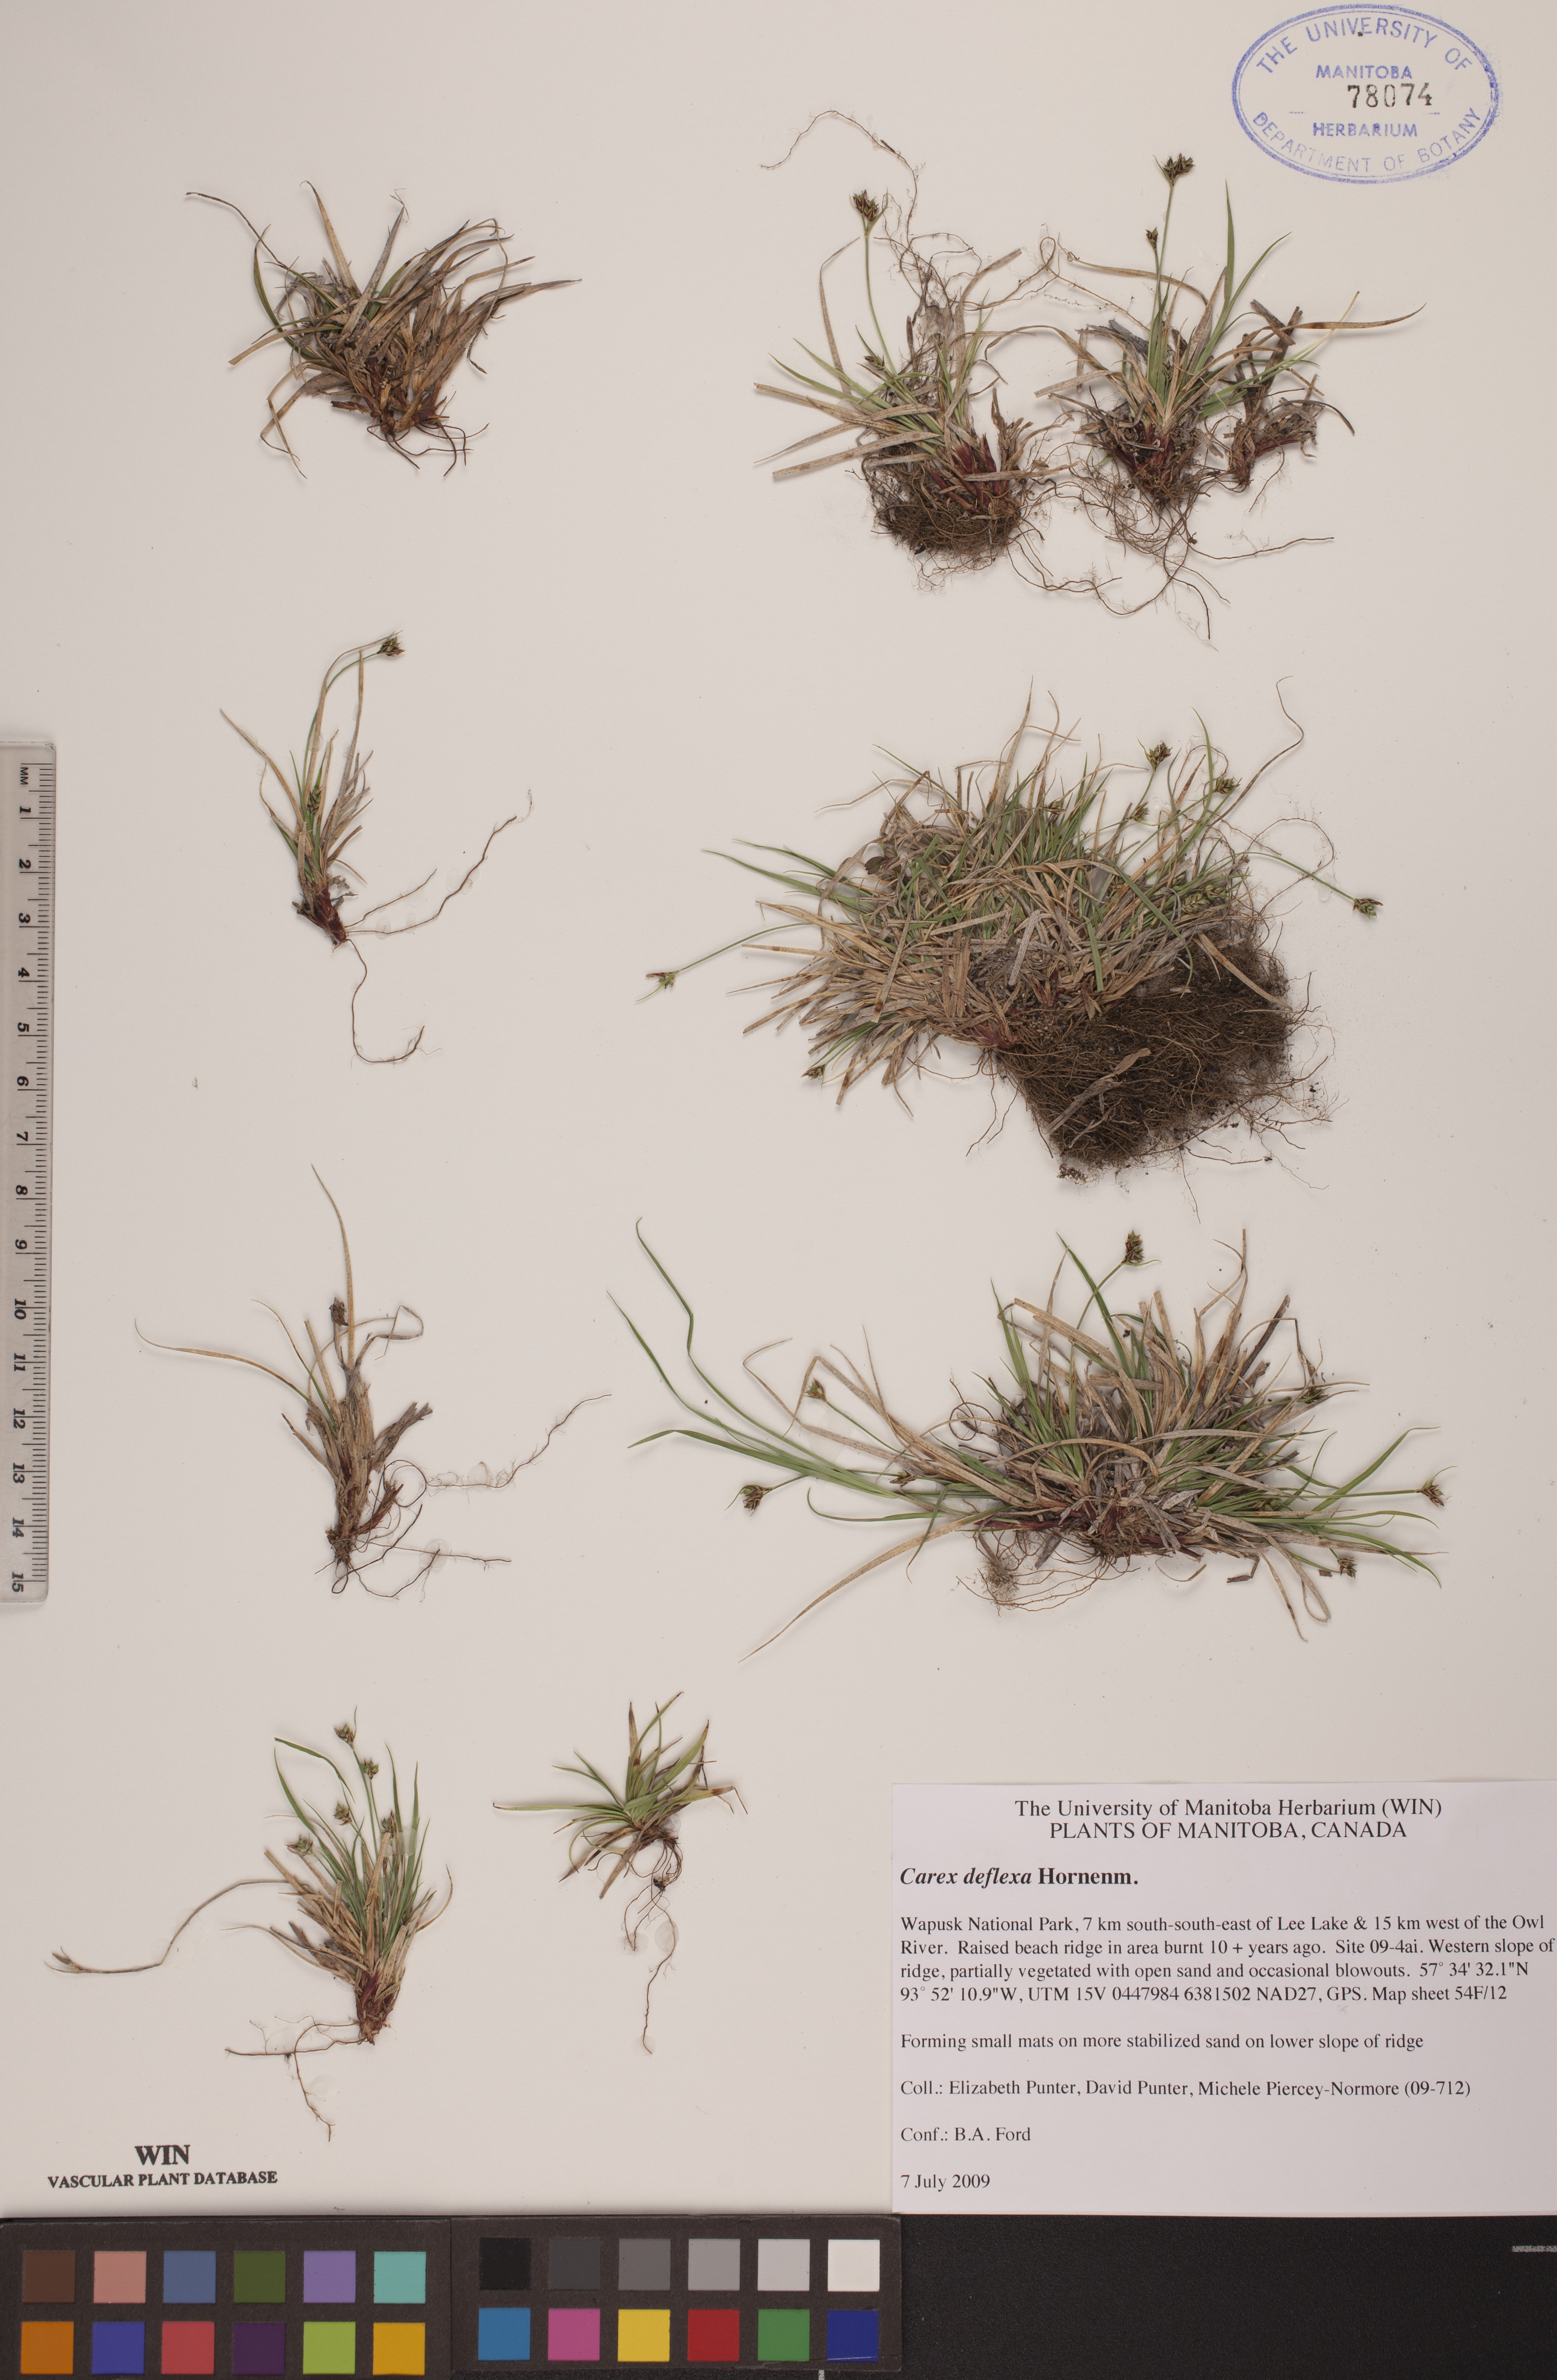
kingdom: Plantae
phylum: Tracheophyta
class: Liliopsida
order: Poales
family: Cyperaceae
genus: Carex
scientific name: Carex deflexa
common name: Bent northern sedge
